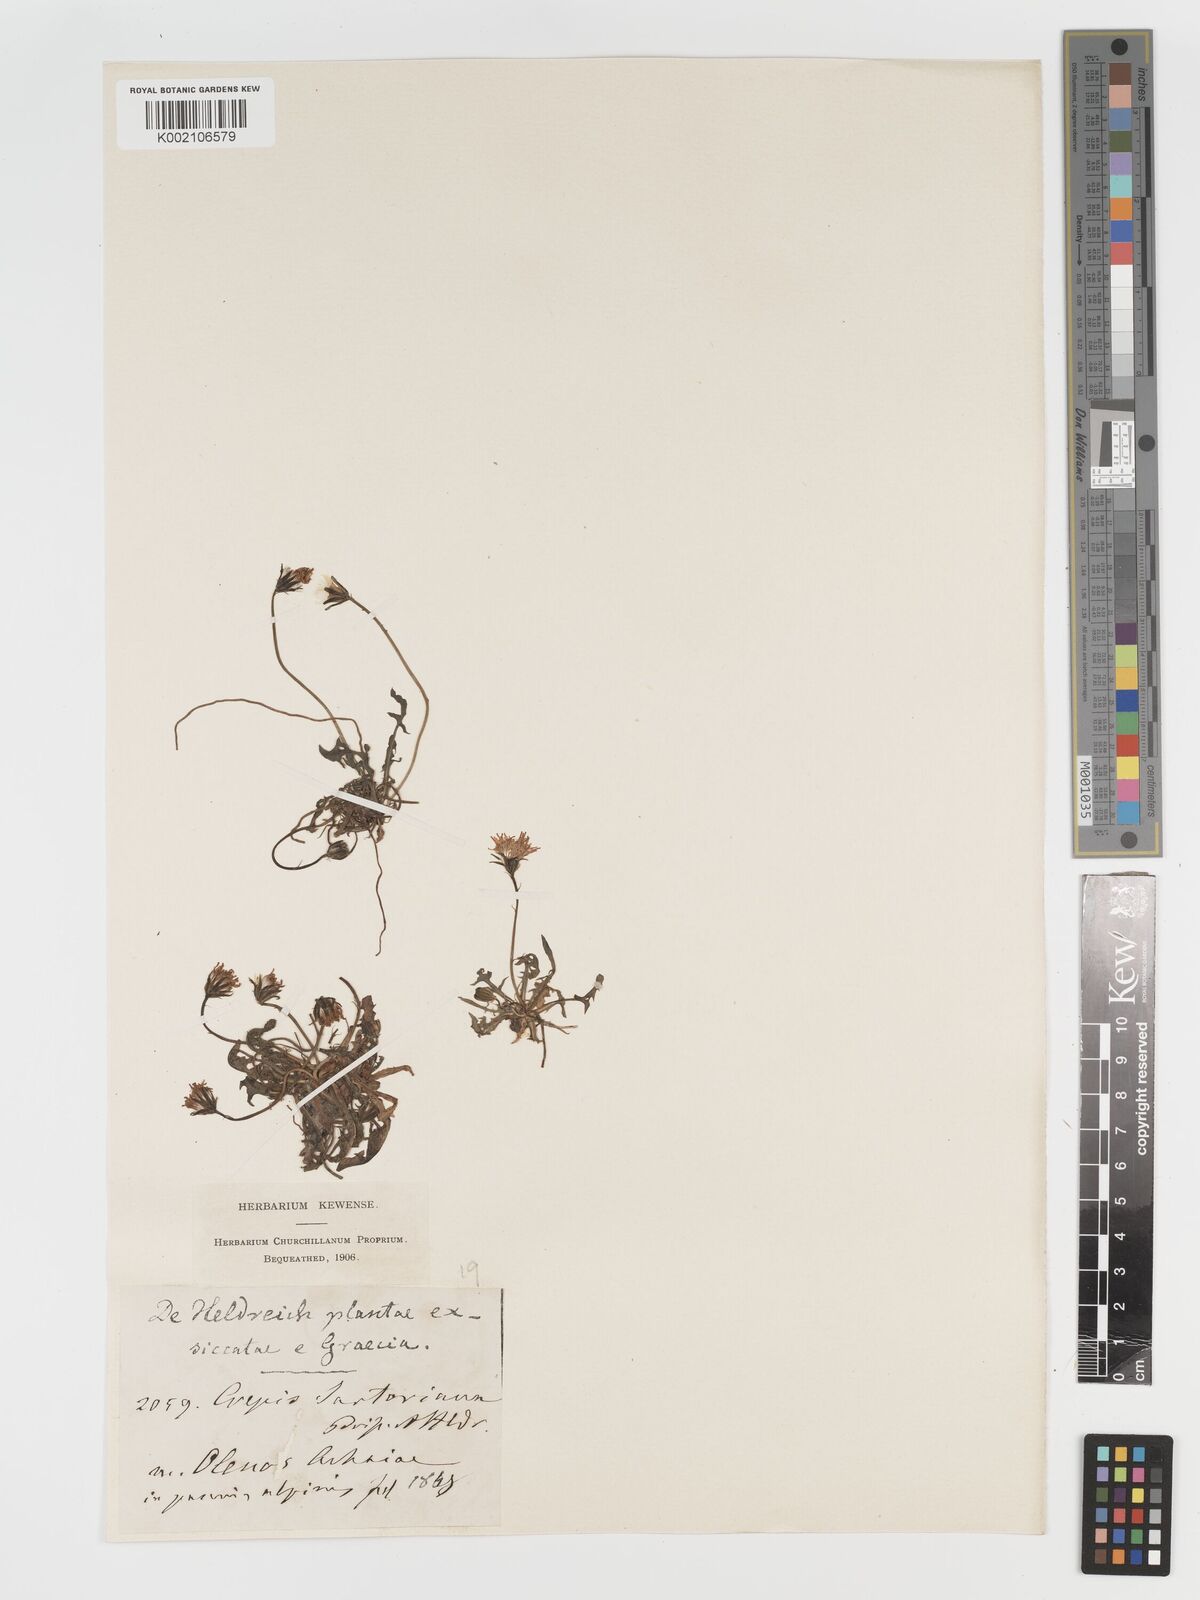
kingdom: Plantae
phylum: Tracheophyta
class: Magnoliopsida
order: Asterales
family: Asteraceae
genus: Crepis
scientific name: Crepis aurea
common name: Golden hawk's-beard
